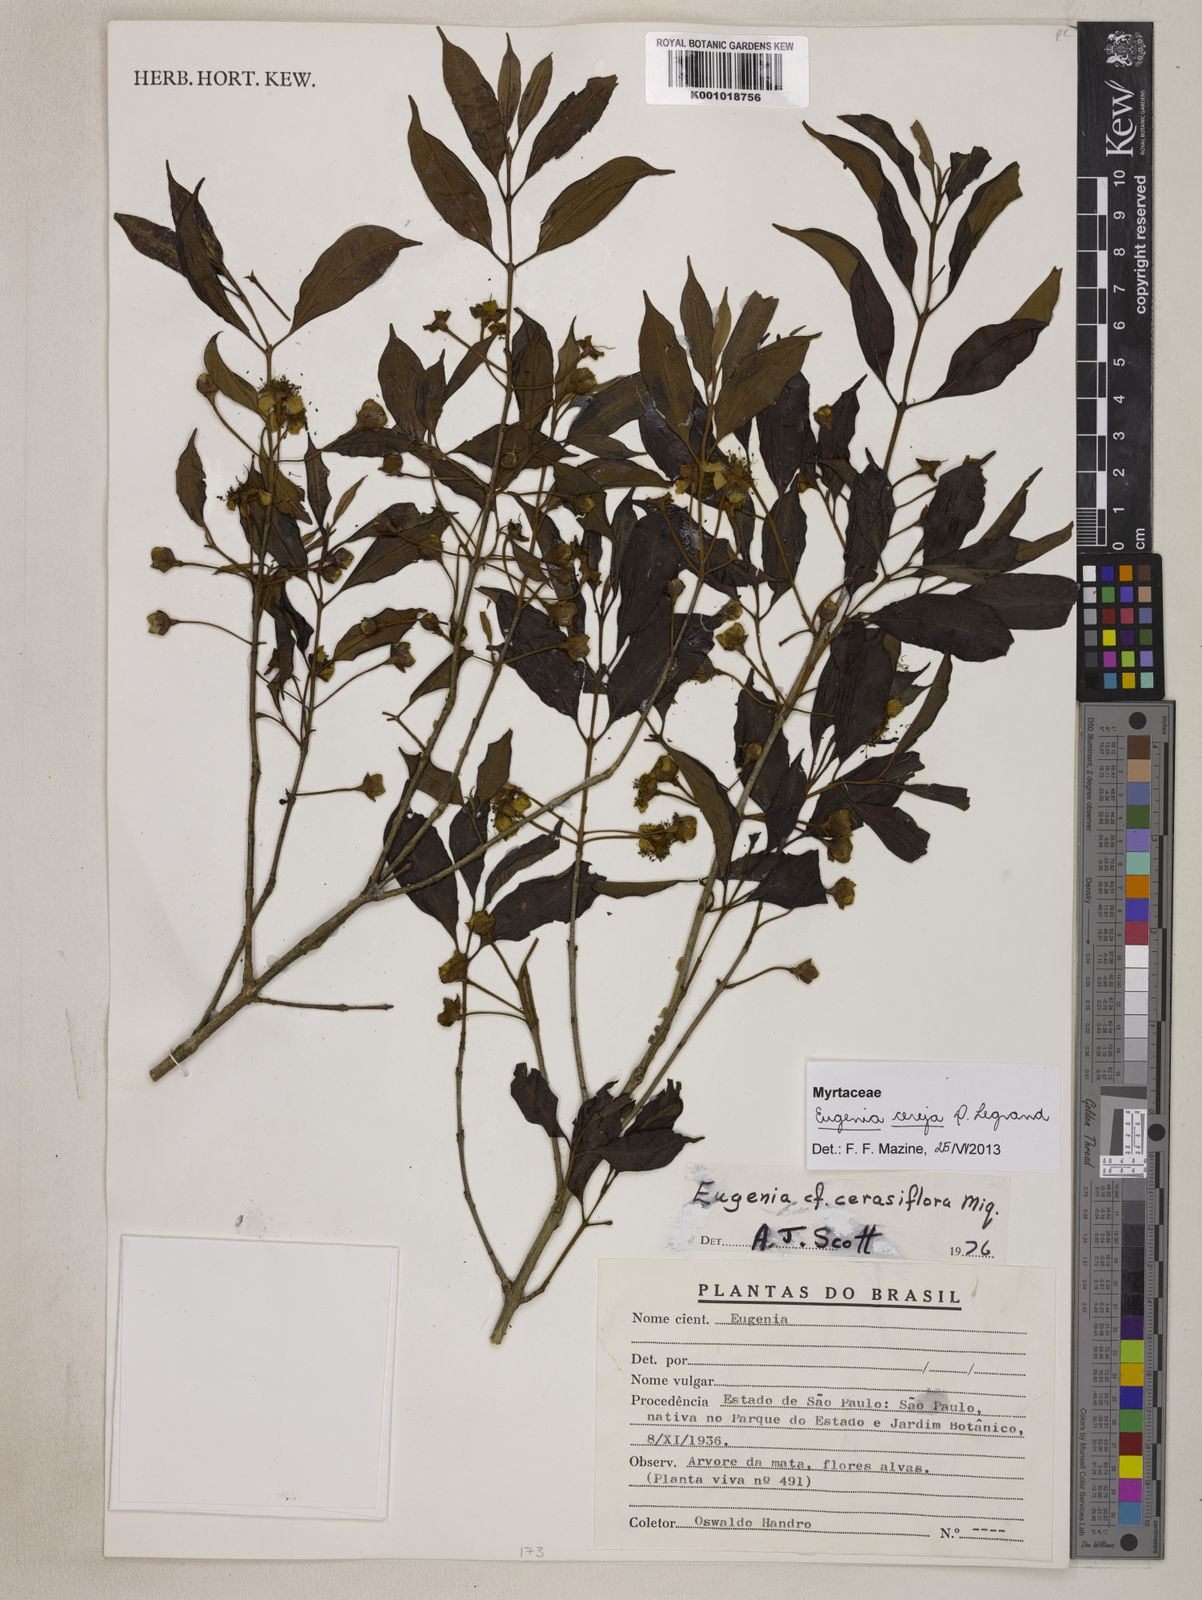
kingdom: Plantae
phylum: Tracheophyta
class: Magnoliopsida
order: Myrtales
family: Myrtaceae
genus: Eugenia
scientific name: Eugenia cereja
